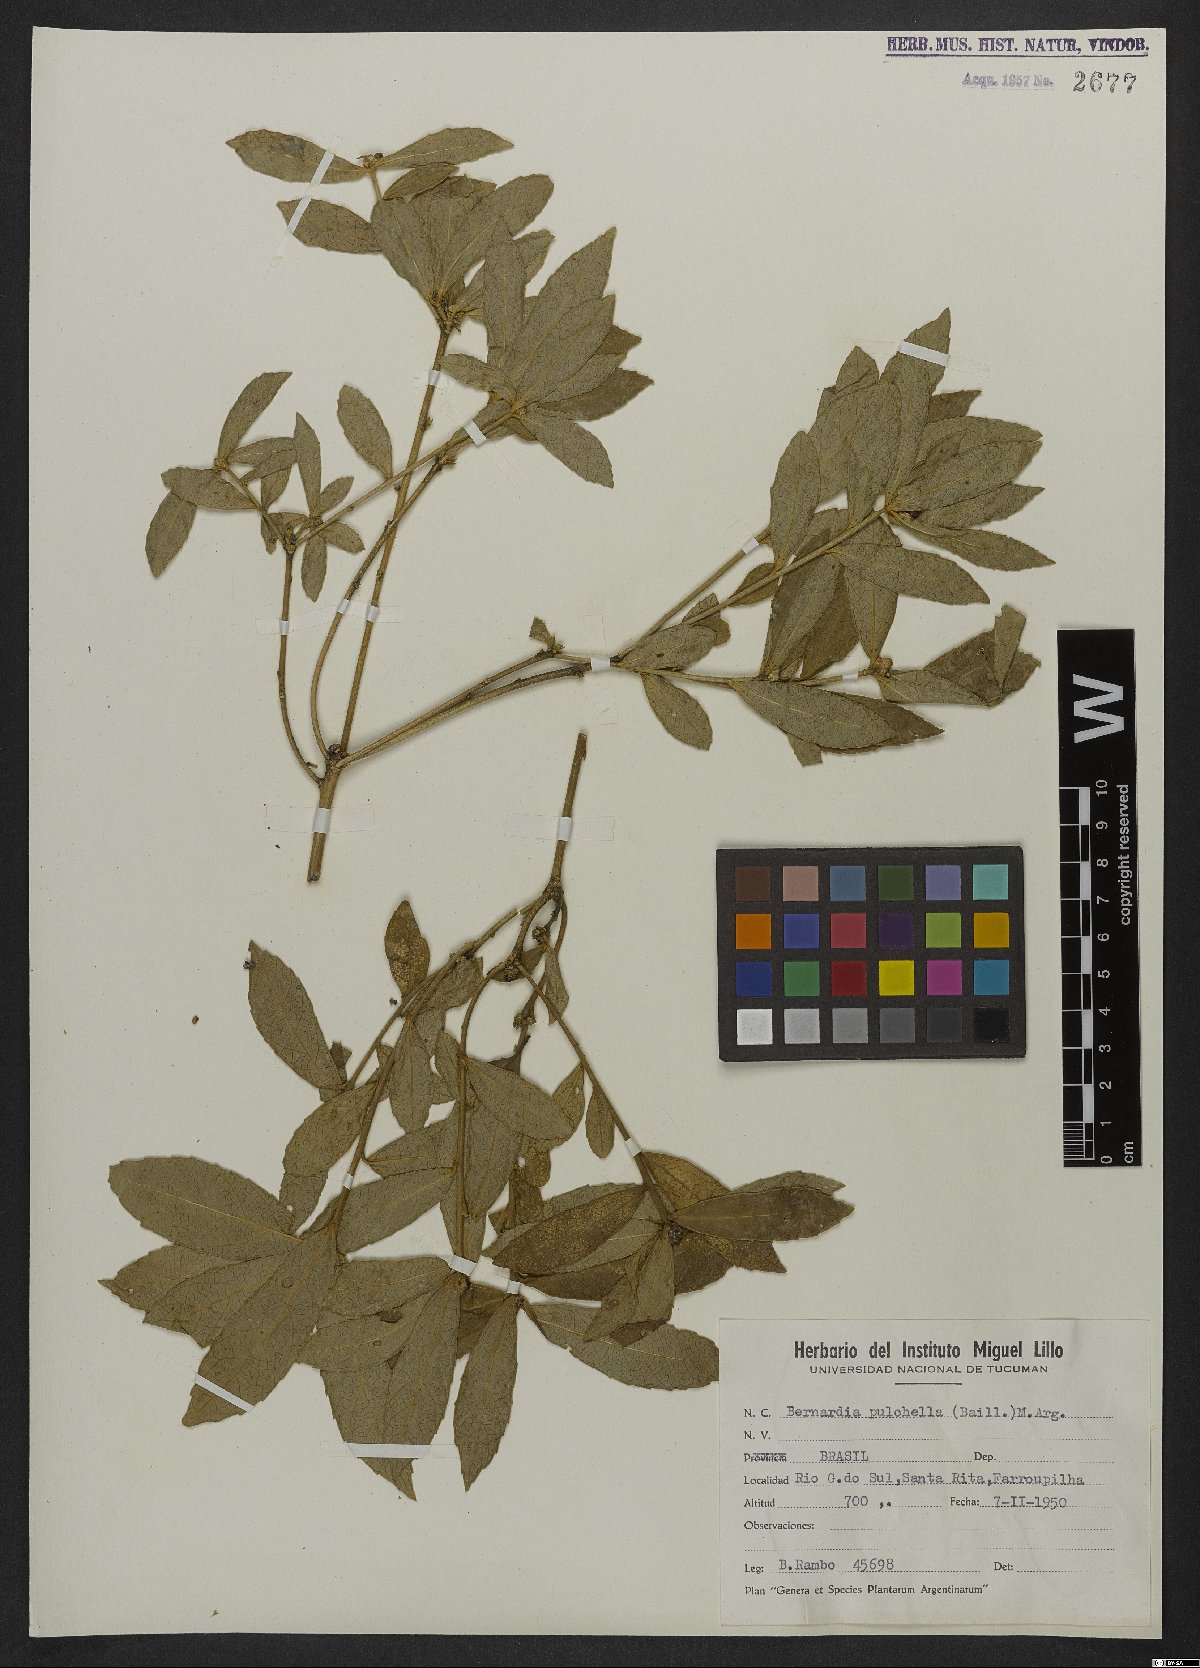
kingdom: Plantae
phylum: Tracheophyta
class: Magnoliopsida
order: Malpighiales
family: Euphorbiaceae
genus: Bernardia
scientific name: Bernardia pulchella
